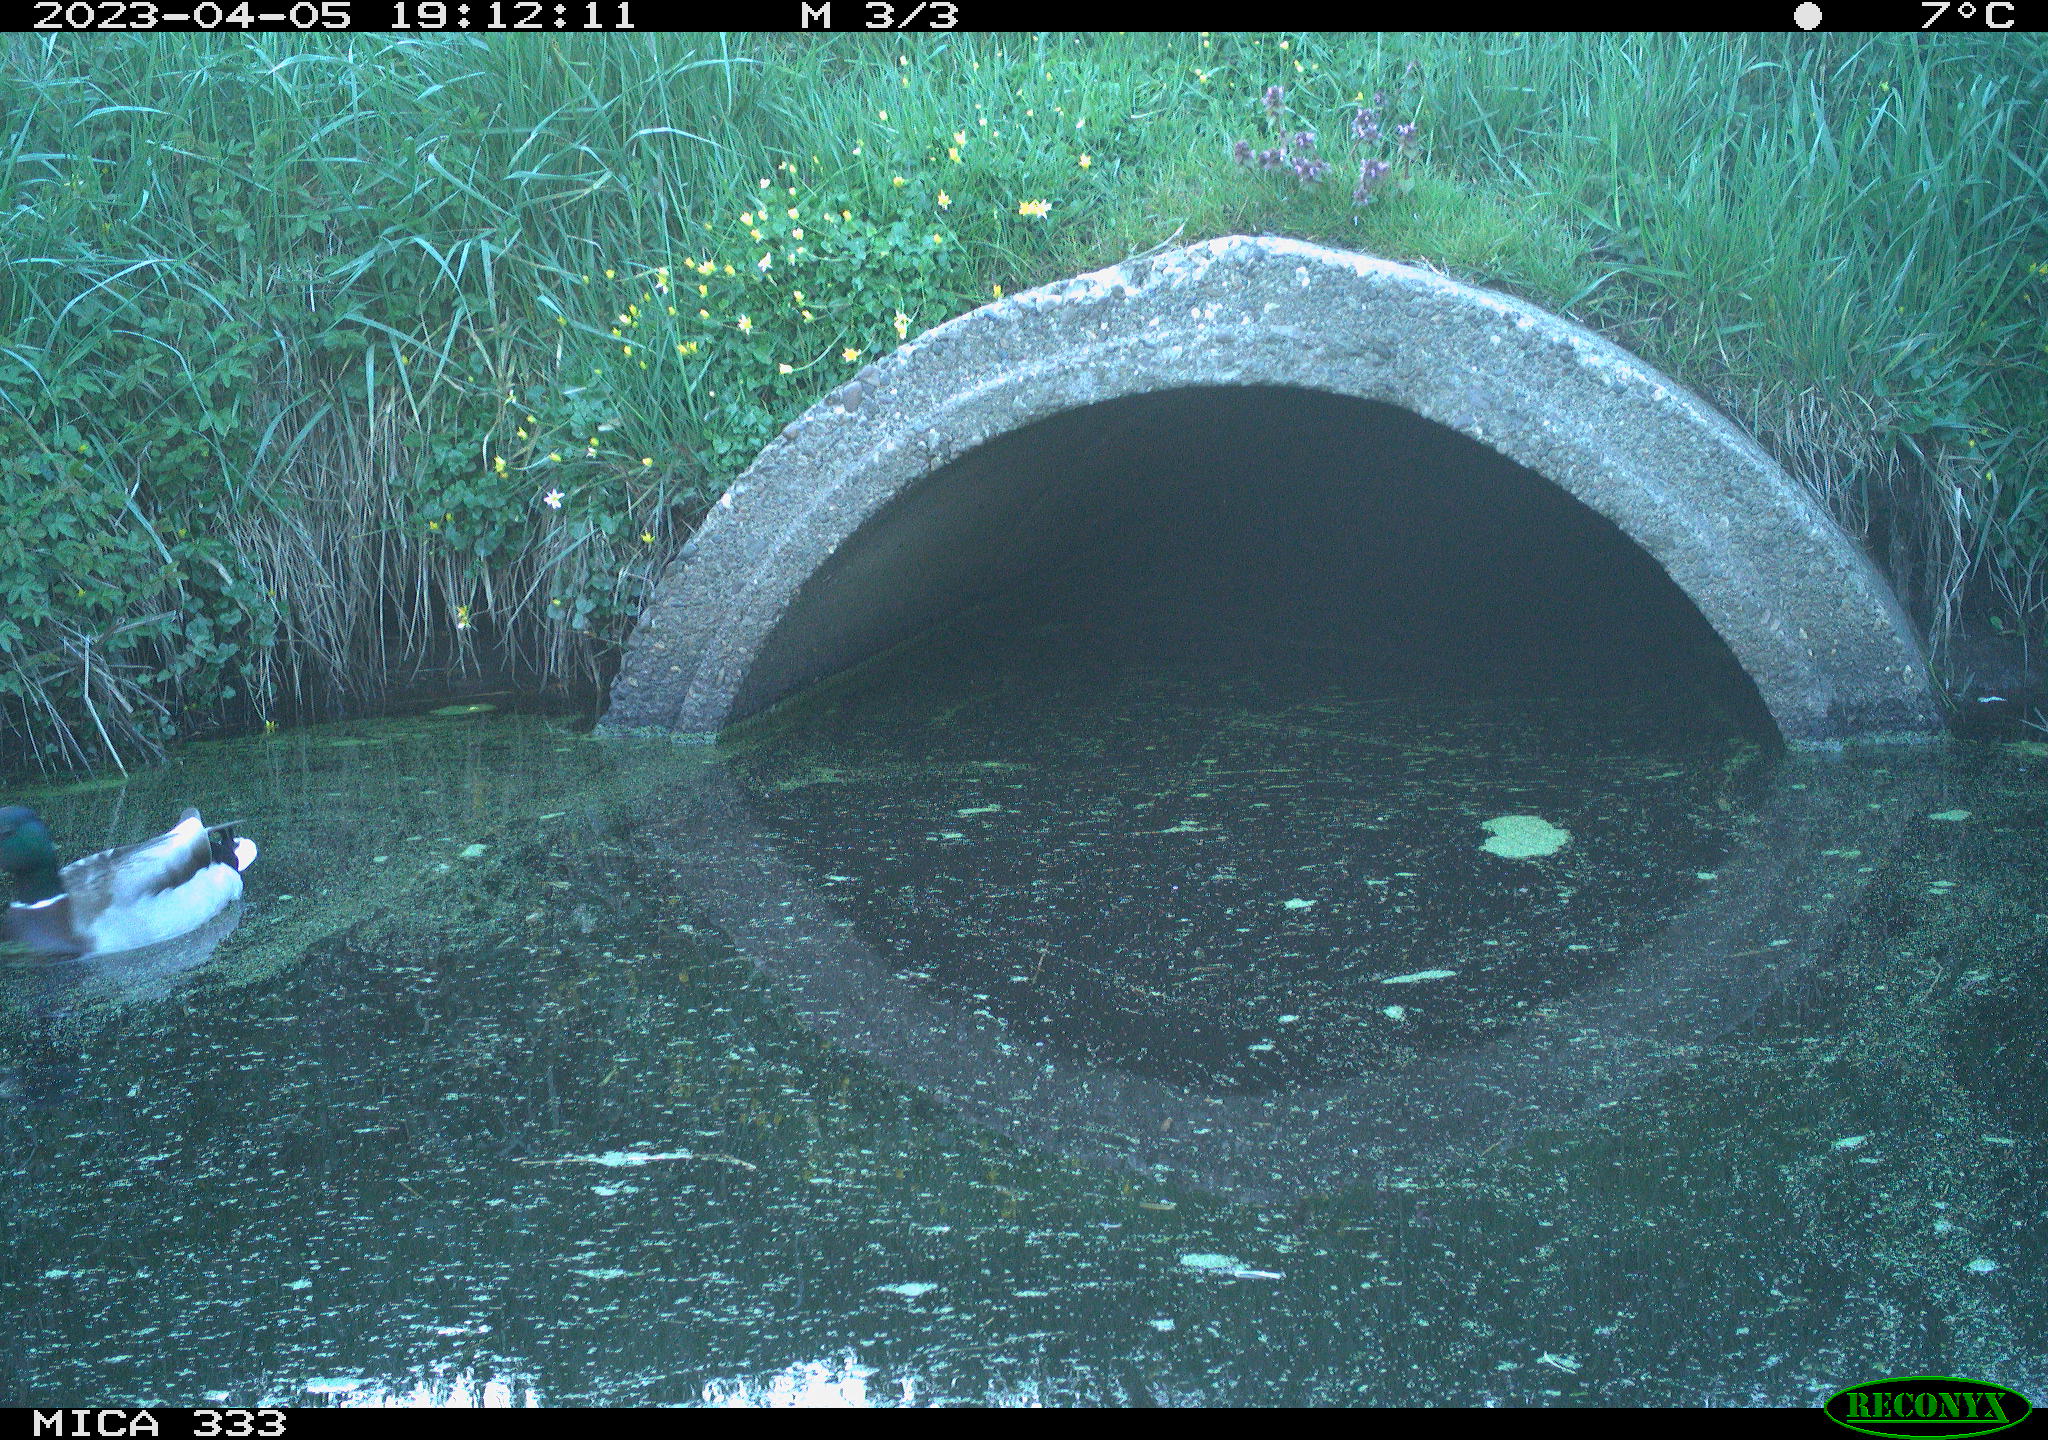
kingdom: Animalia
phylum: Chordata
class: Aves
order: Anseriformes
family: Anatidae
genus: Anas
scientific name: Anas
